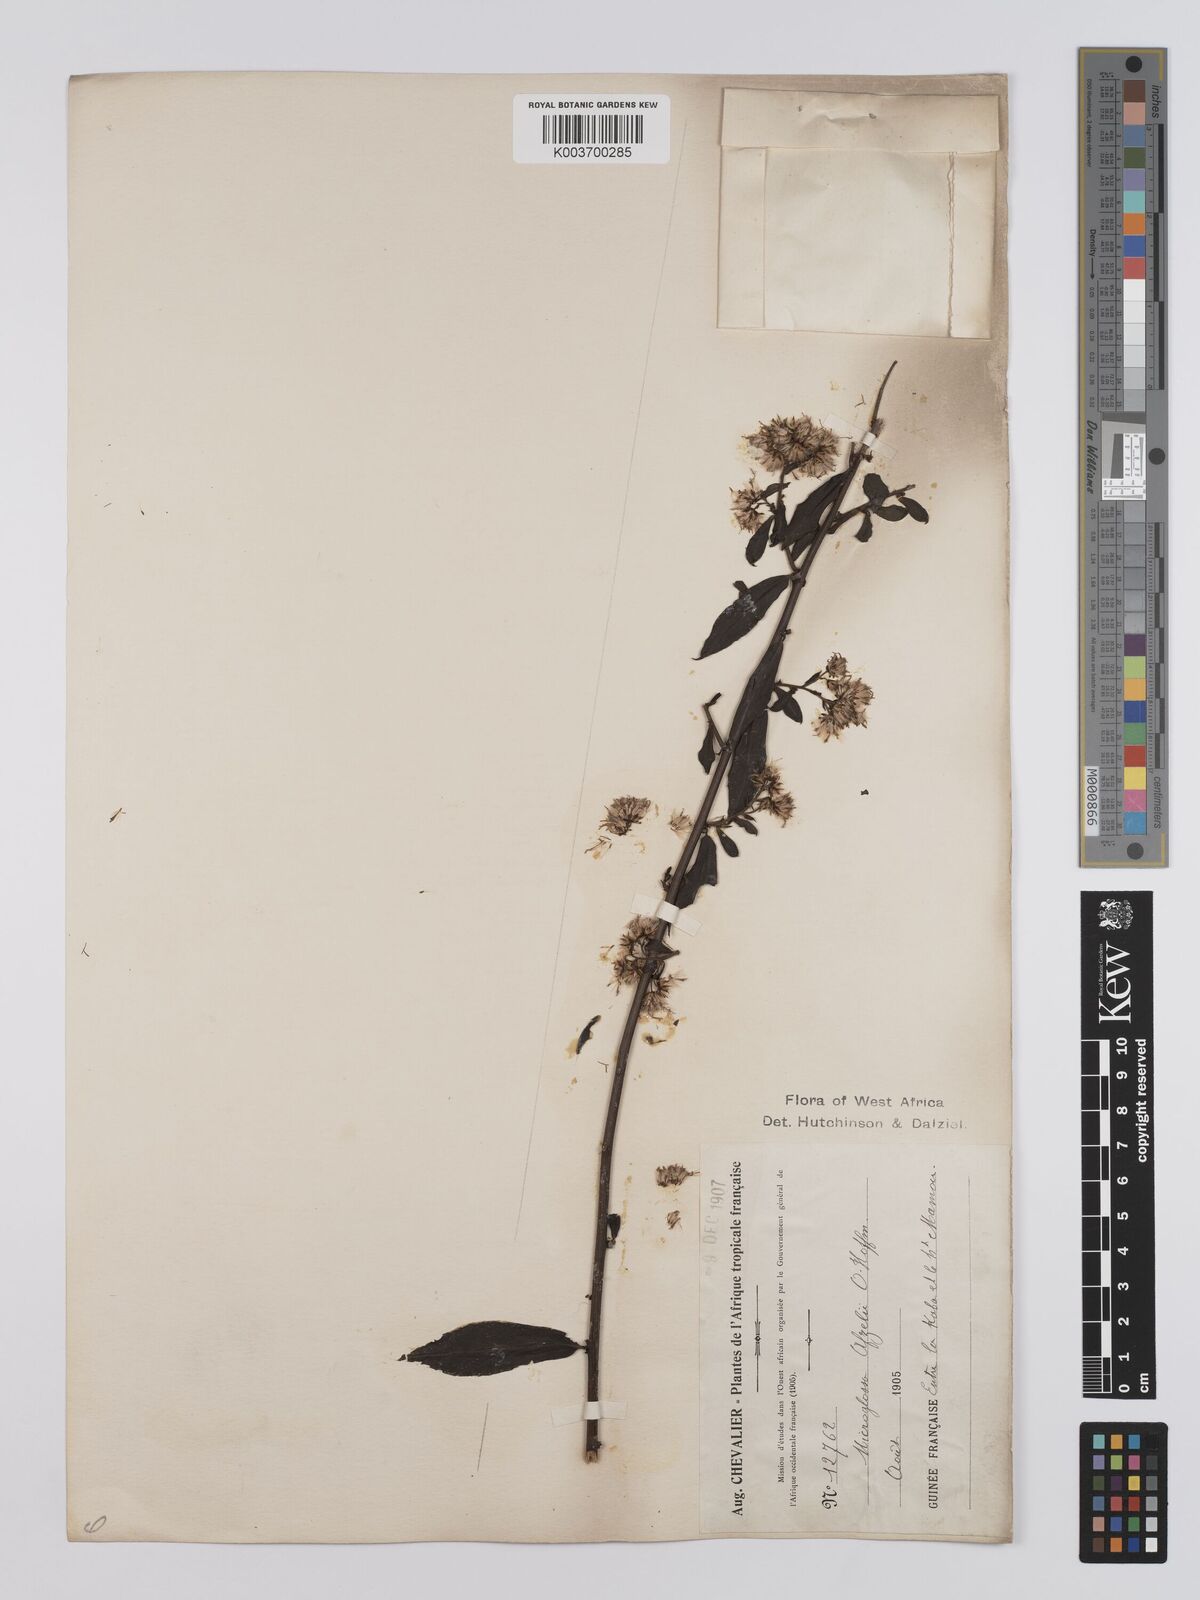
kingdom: Plantae
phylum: Tracheophyta
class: Magnoliopsida
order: Asterales
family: Asteraceae
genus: Microglossa
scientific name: Microglossa afzelii
